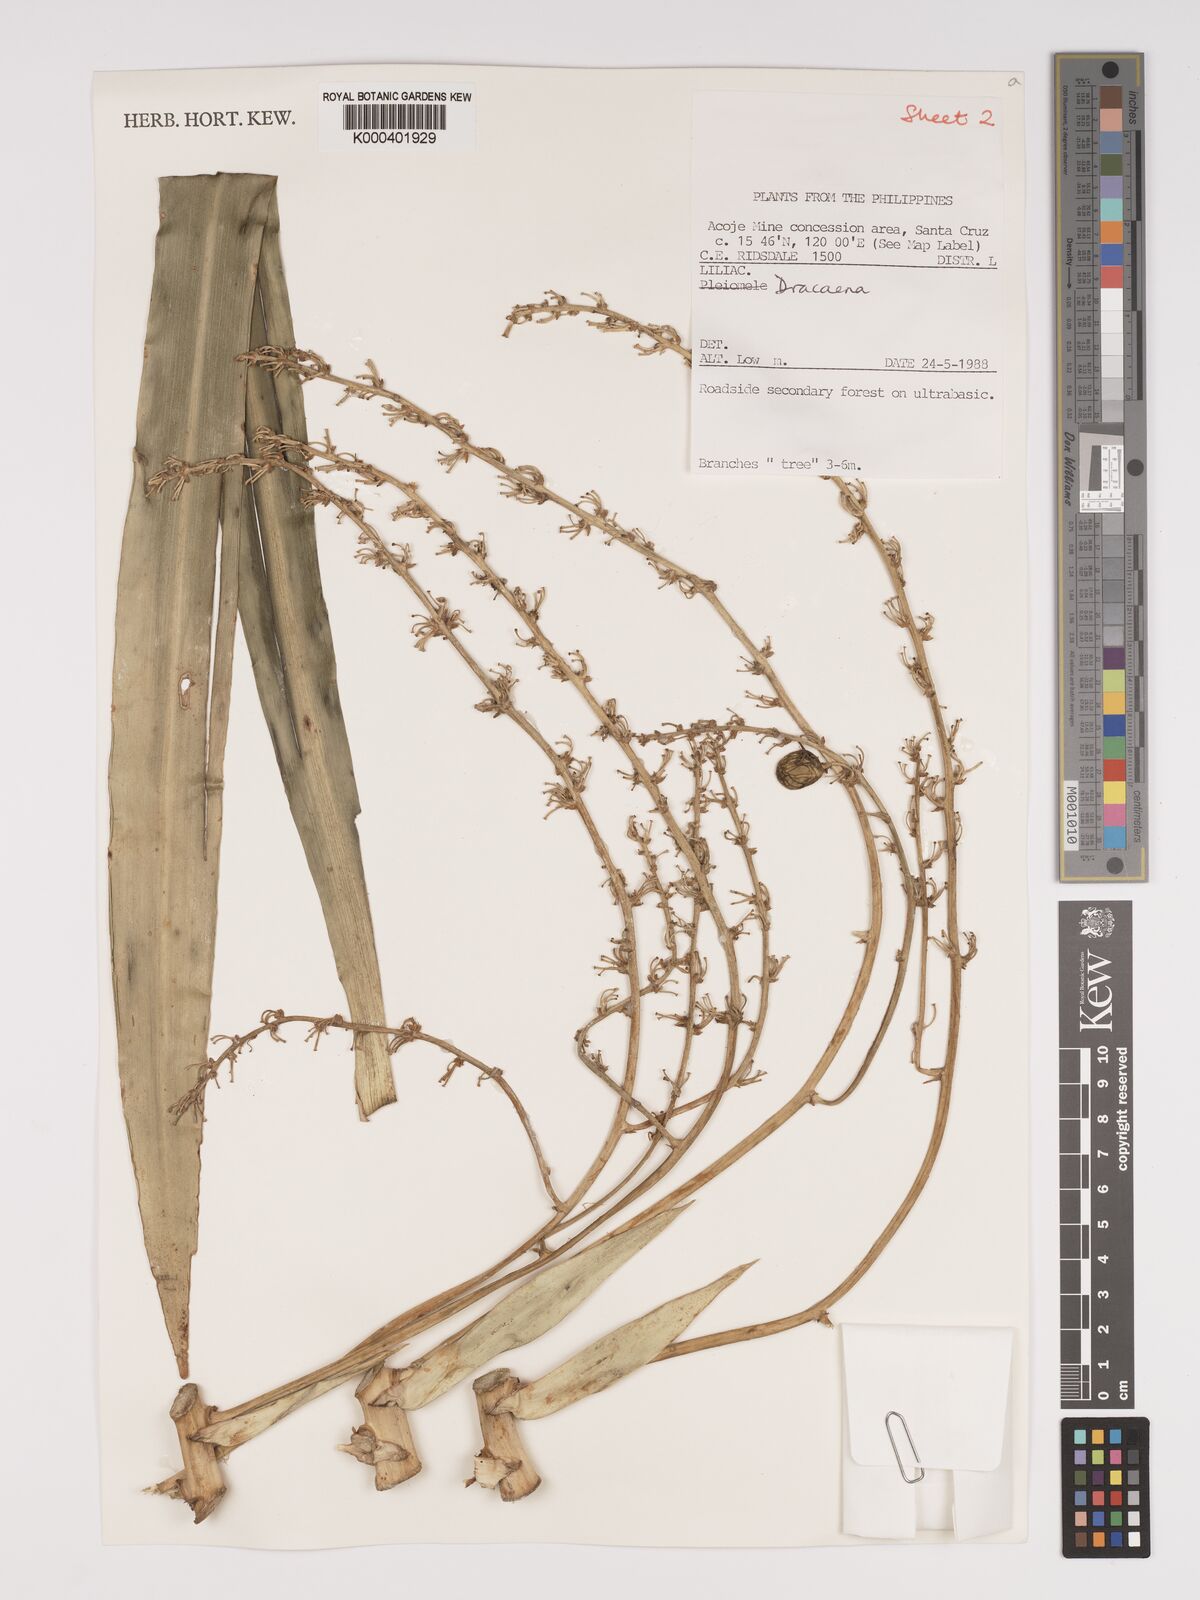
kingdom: Plantae
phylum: Tracheophyta
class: Liliopsida
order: Asparagales
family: Asparagaceae
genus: Dracaena
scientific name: Dracaena
